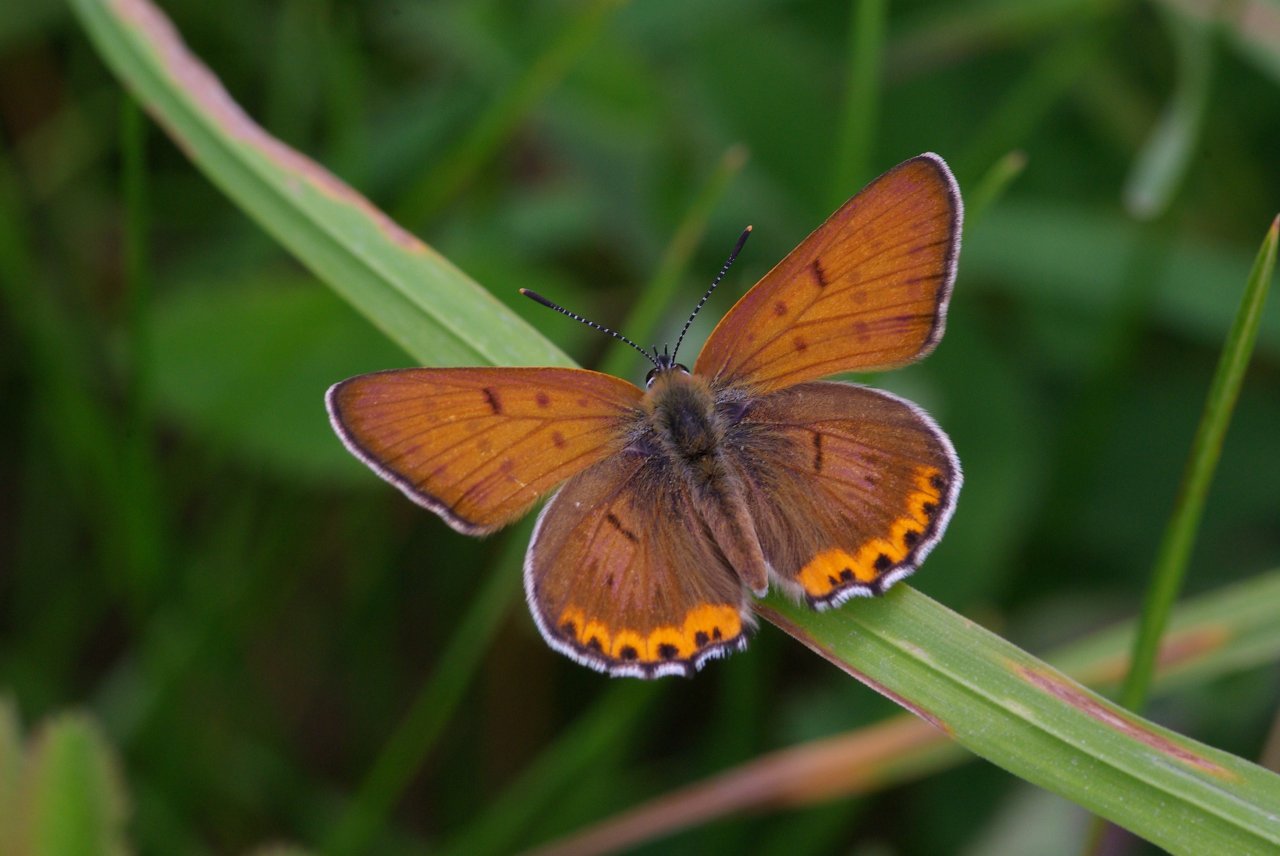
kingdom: Animalia
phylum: Arthropoda
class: Insecta
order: Lepidoptera
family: Sesiidae
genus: Sesia
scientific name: Sesia Lycaena hyllus
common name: Bronze Copper
